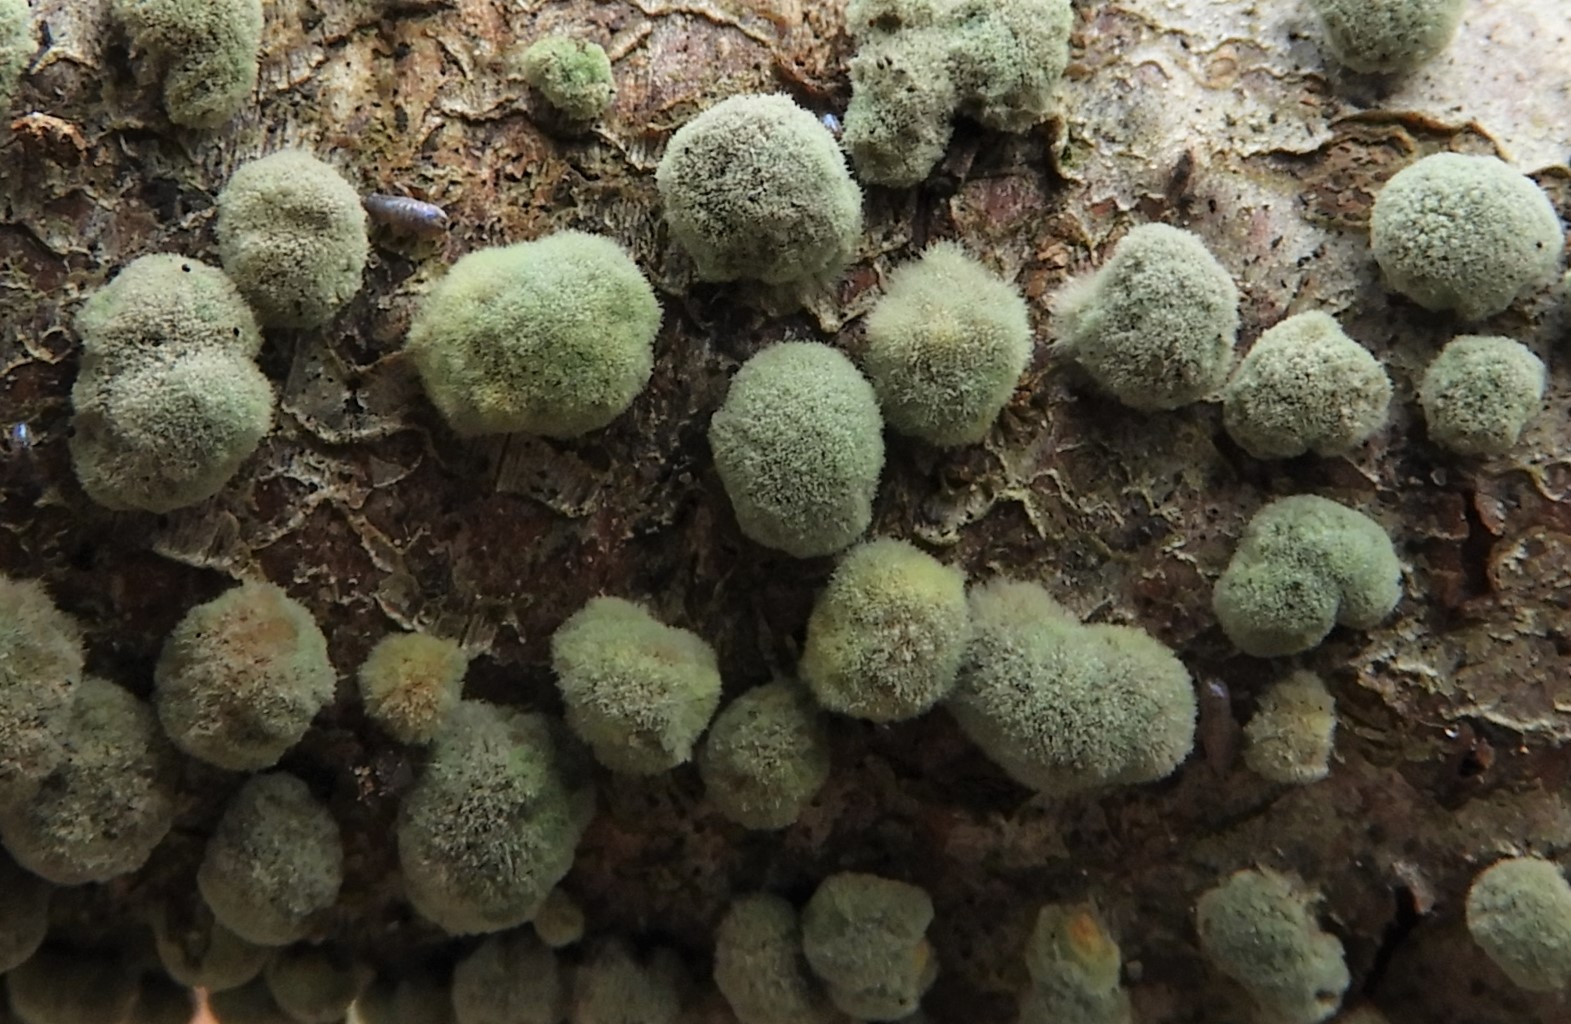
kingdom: Fungi
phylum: Ascomycota
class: Sordariomycetes
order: Xylariales
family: Hypoxylaceae
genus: Hypoxylon
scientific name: Hypoxylon fragiforme
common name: kuljordbær
